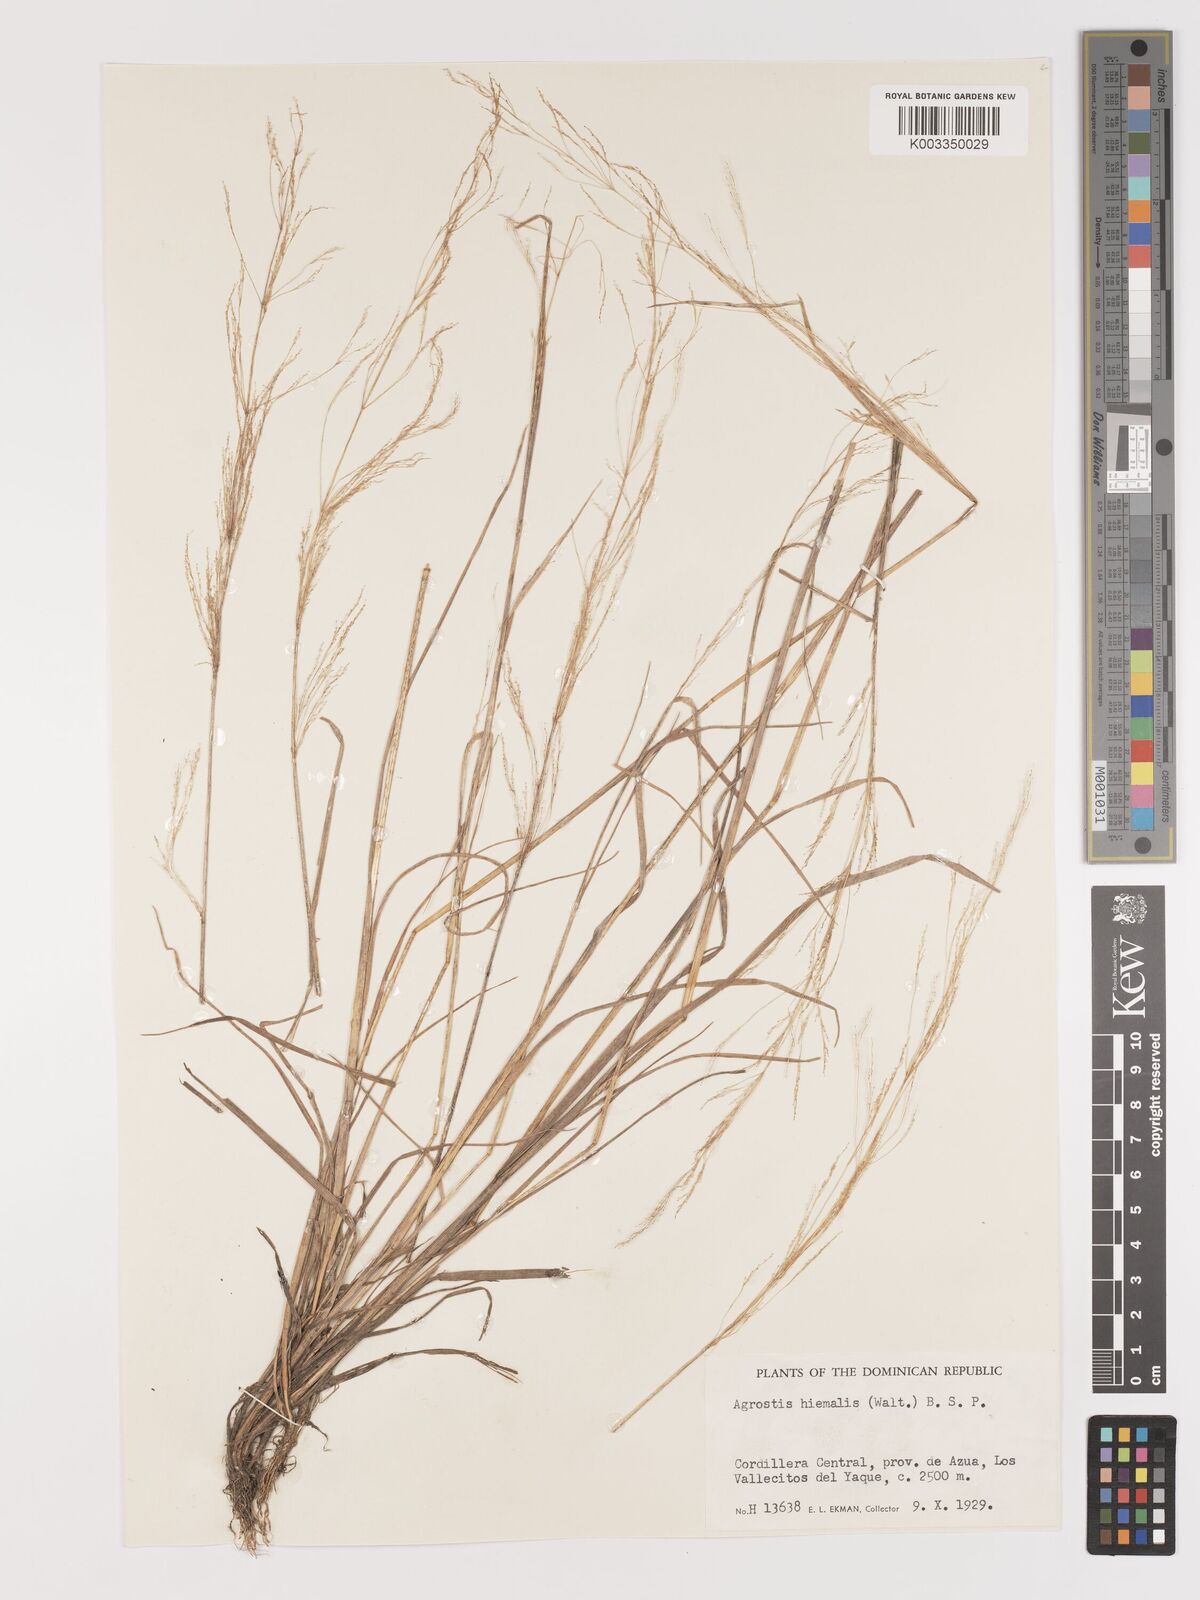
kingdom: Plantae
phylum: Tracheophyta
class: Liliopsida
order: Poales
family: Poaceae
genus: Agrostis
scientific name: Agrostis hyemalis
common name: Small bent
